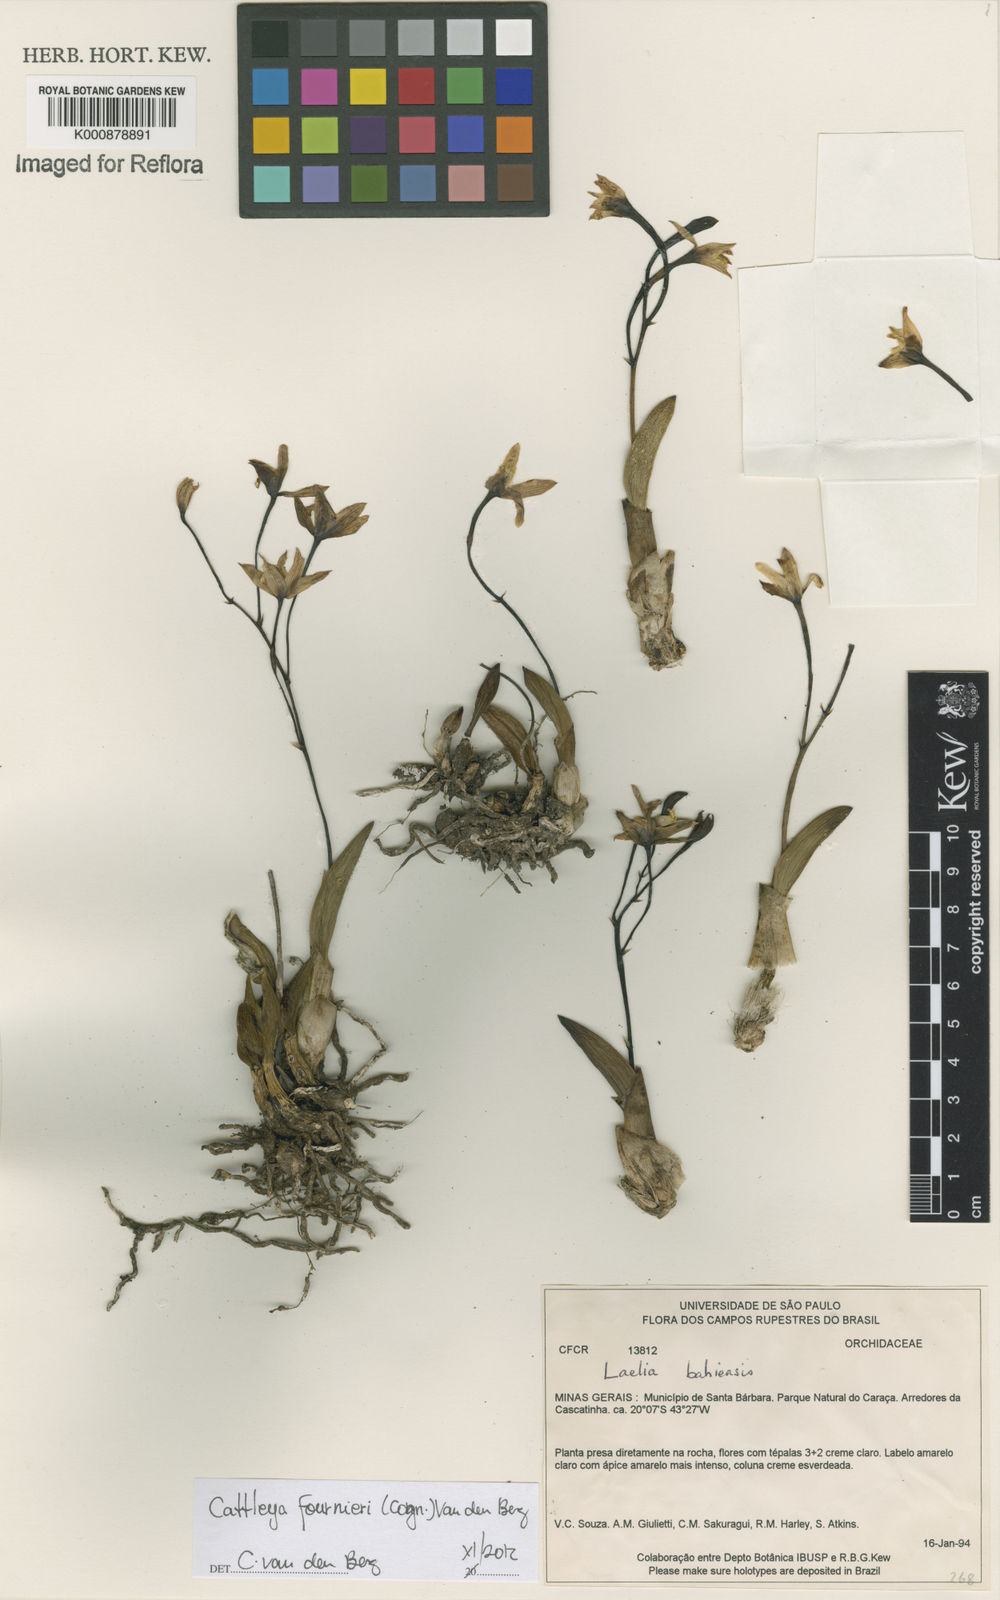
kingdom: Plantae
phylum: Tracheophyta
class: Liliopsida
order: Asparagales
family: Orchidaceae
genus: Cattleya
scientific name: Cattleya fournieri
